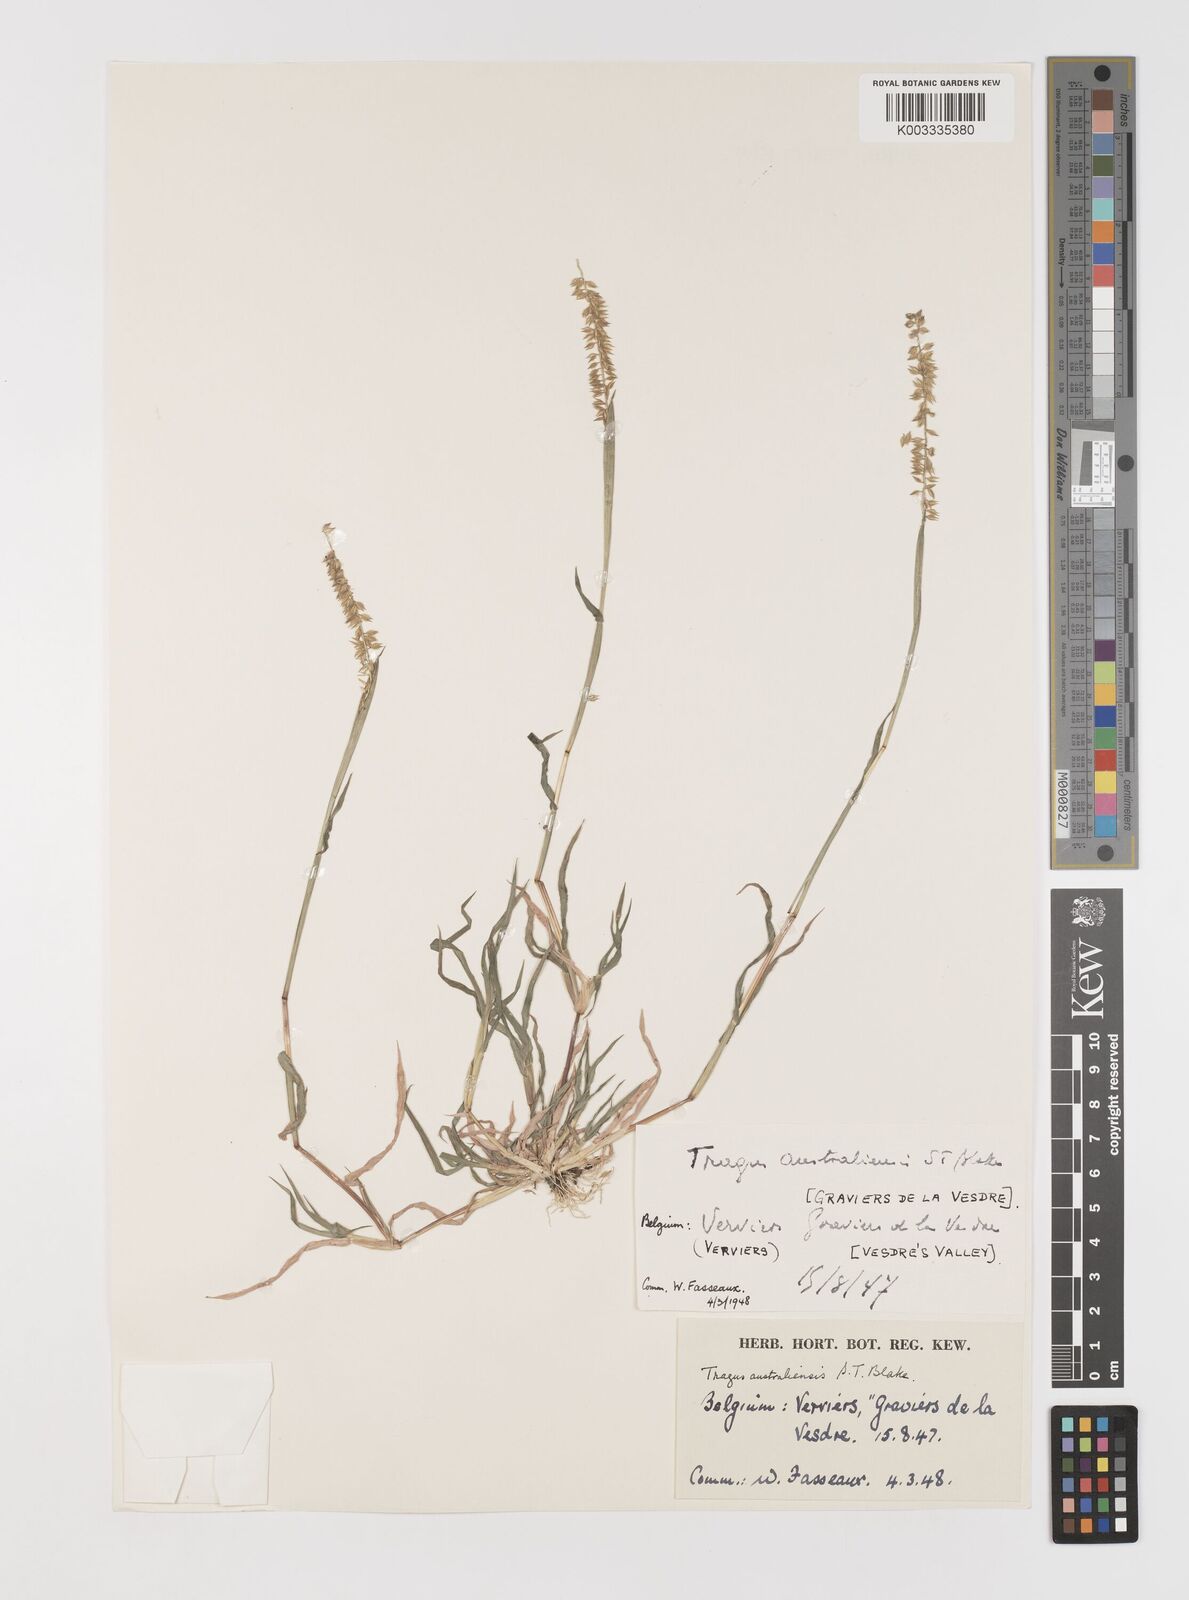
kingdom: Plantae
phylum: Tracheophyta
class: Liliopsida
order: Poales
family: Poaceae
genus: Tragus
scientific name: Tragus australianus
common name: Australian bur-grass
